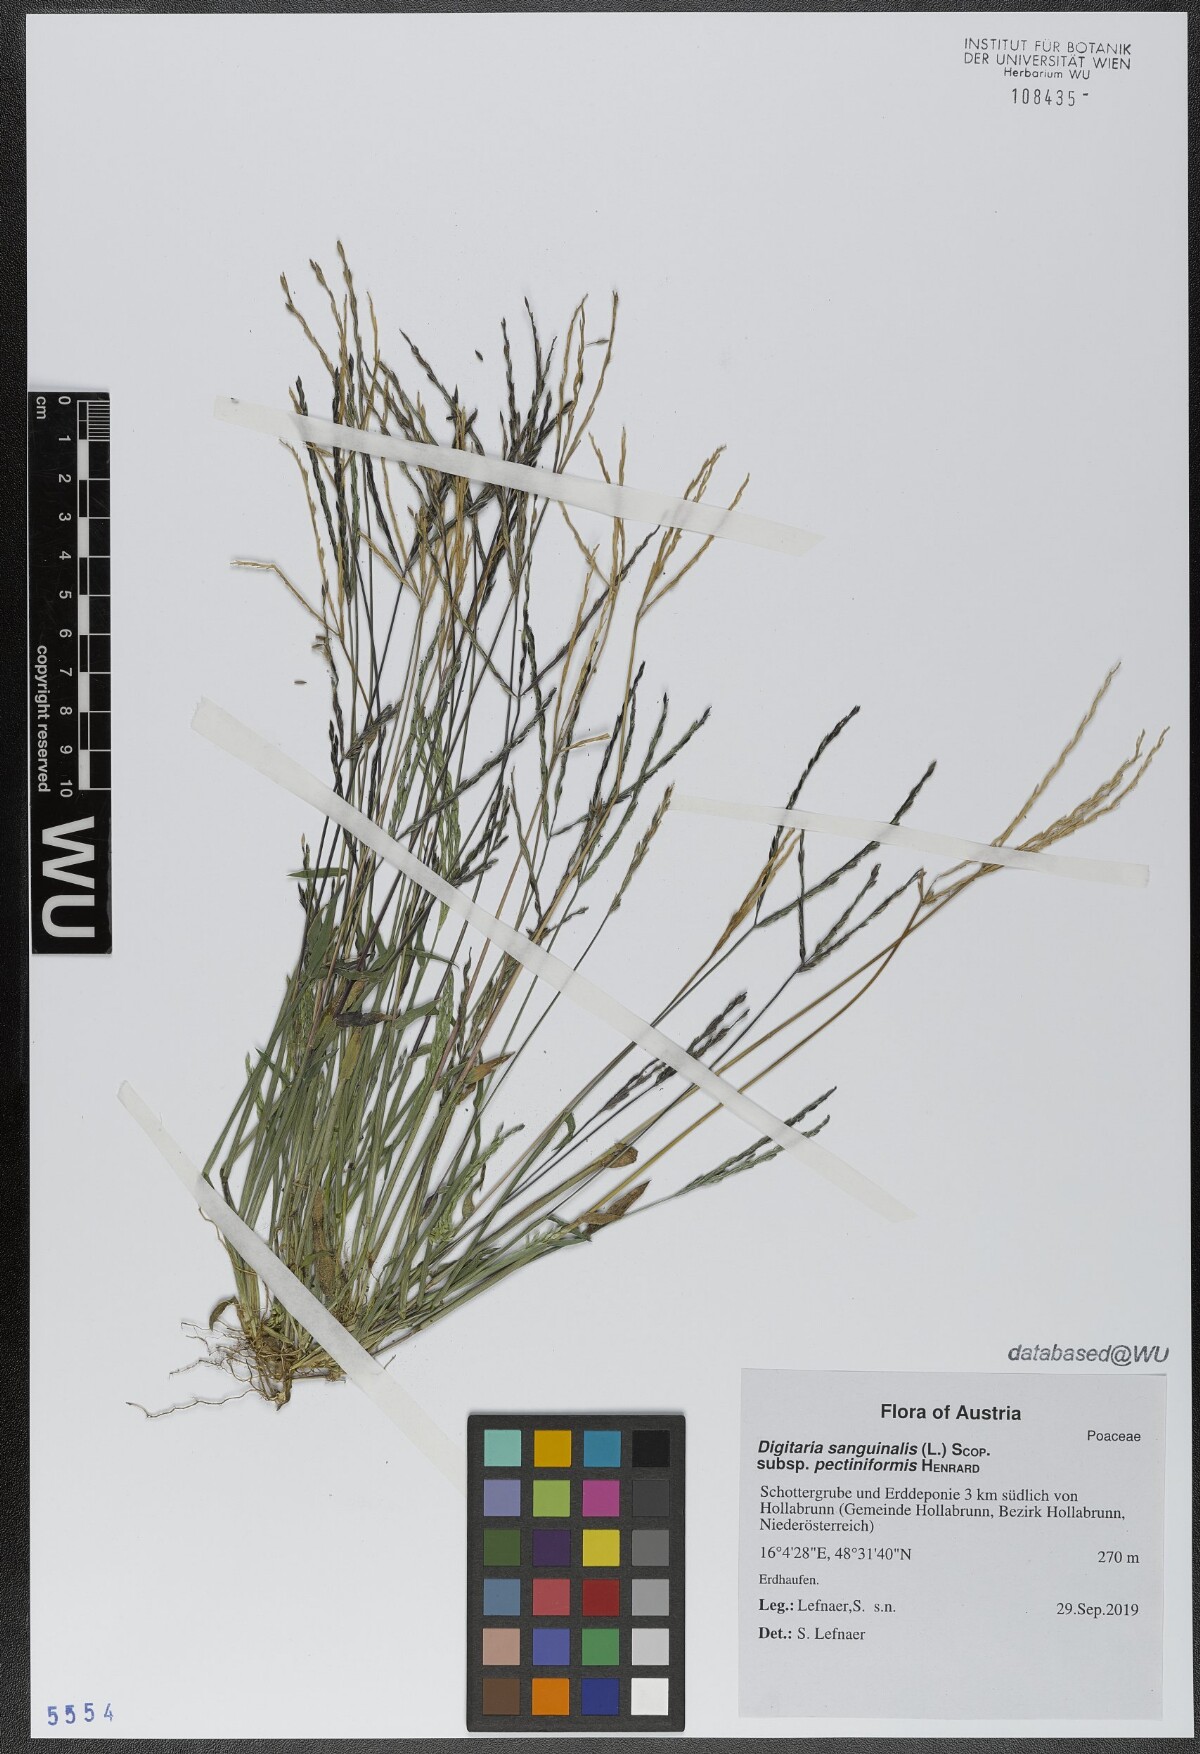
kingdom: Plantae
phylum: Tracheophyta
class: Liliopsida
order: Poales
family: Poaceae
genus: Digitaria
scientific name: Digitaria sanguinalis
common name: Hairy crabgrass
